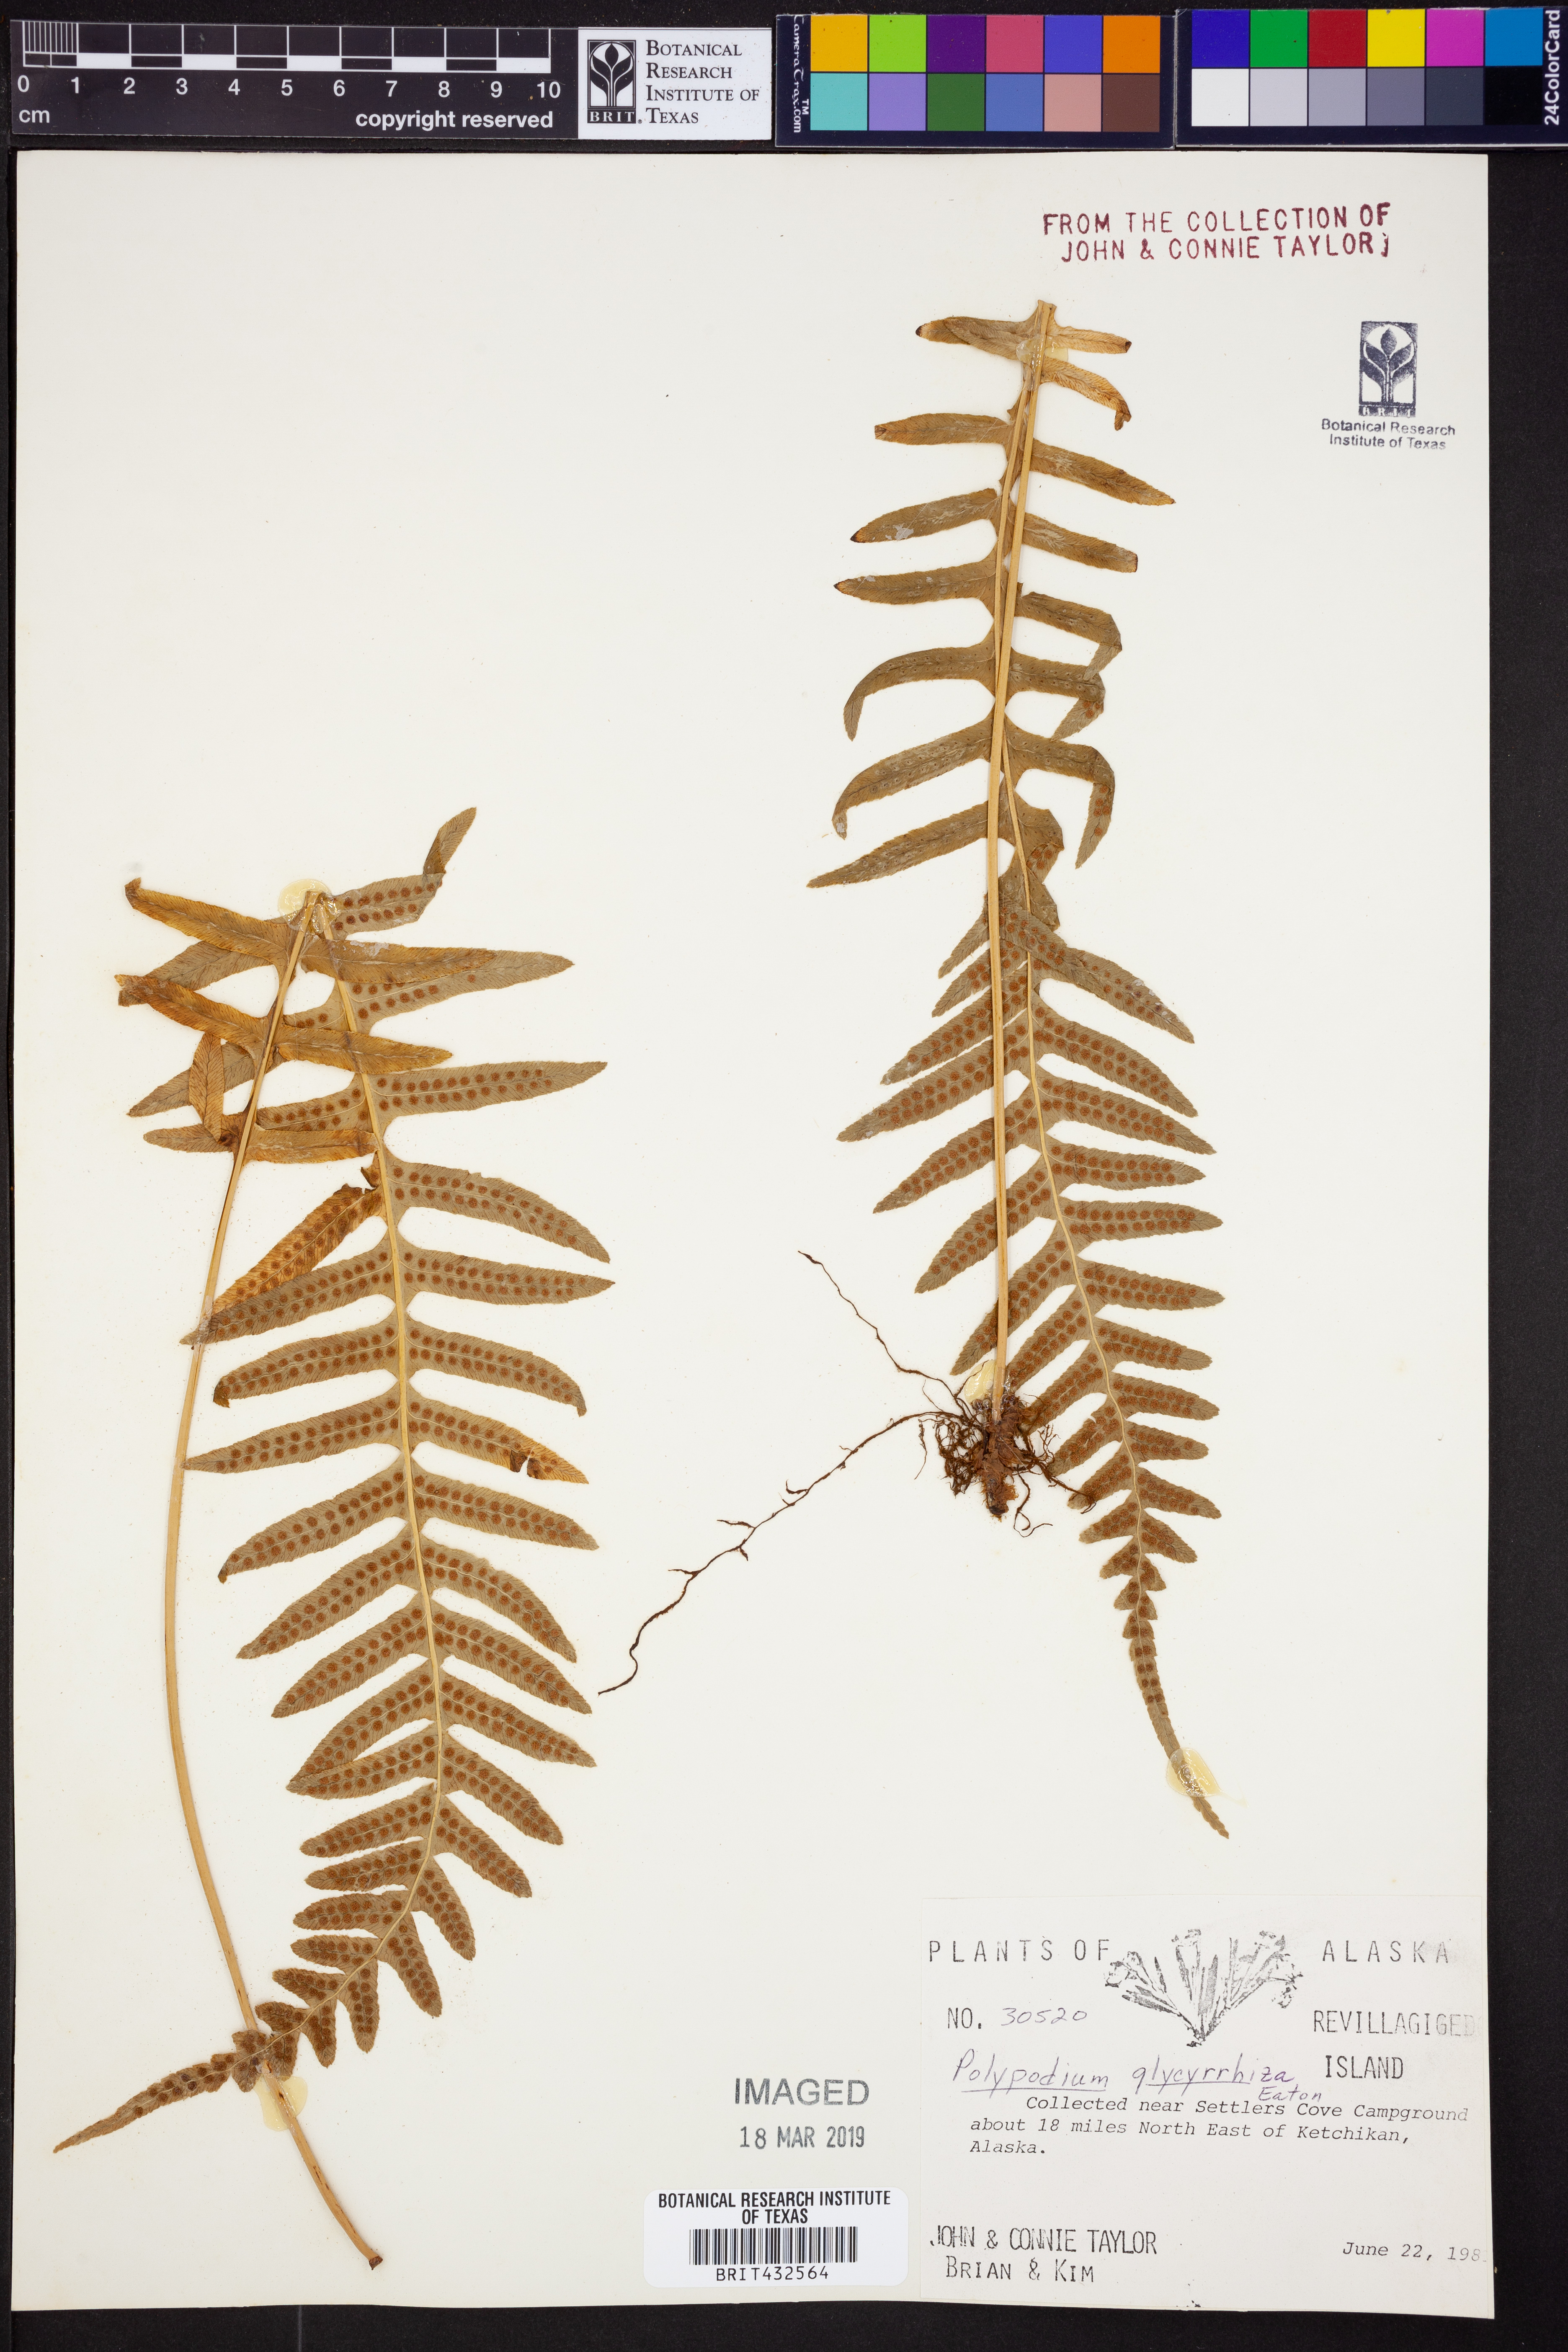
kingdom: Plantae
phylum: Tracheophyta
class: Polypodiopsida
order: Polypodiales
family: Polypodiaceae
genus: Polypodium
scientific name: Polypodium glycyrrhiza
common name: Licorice fern
